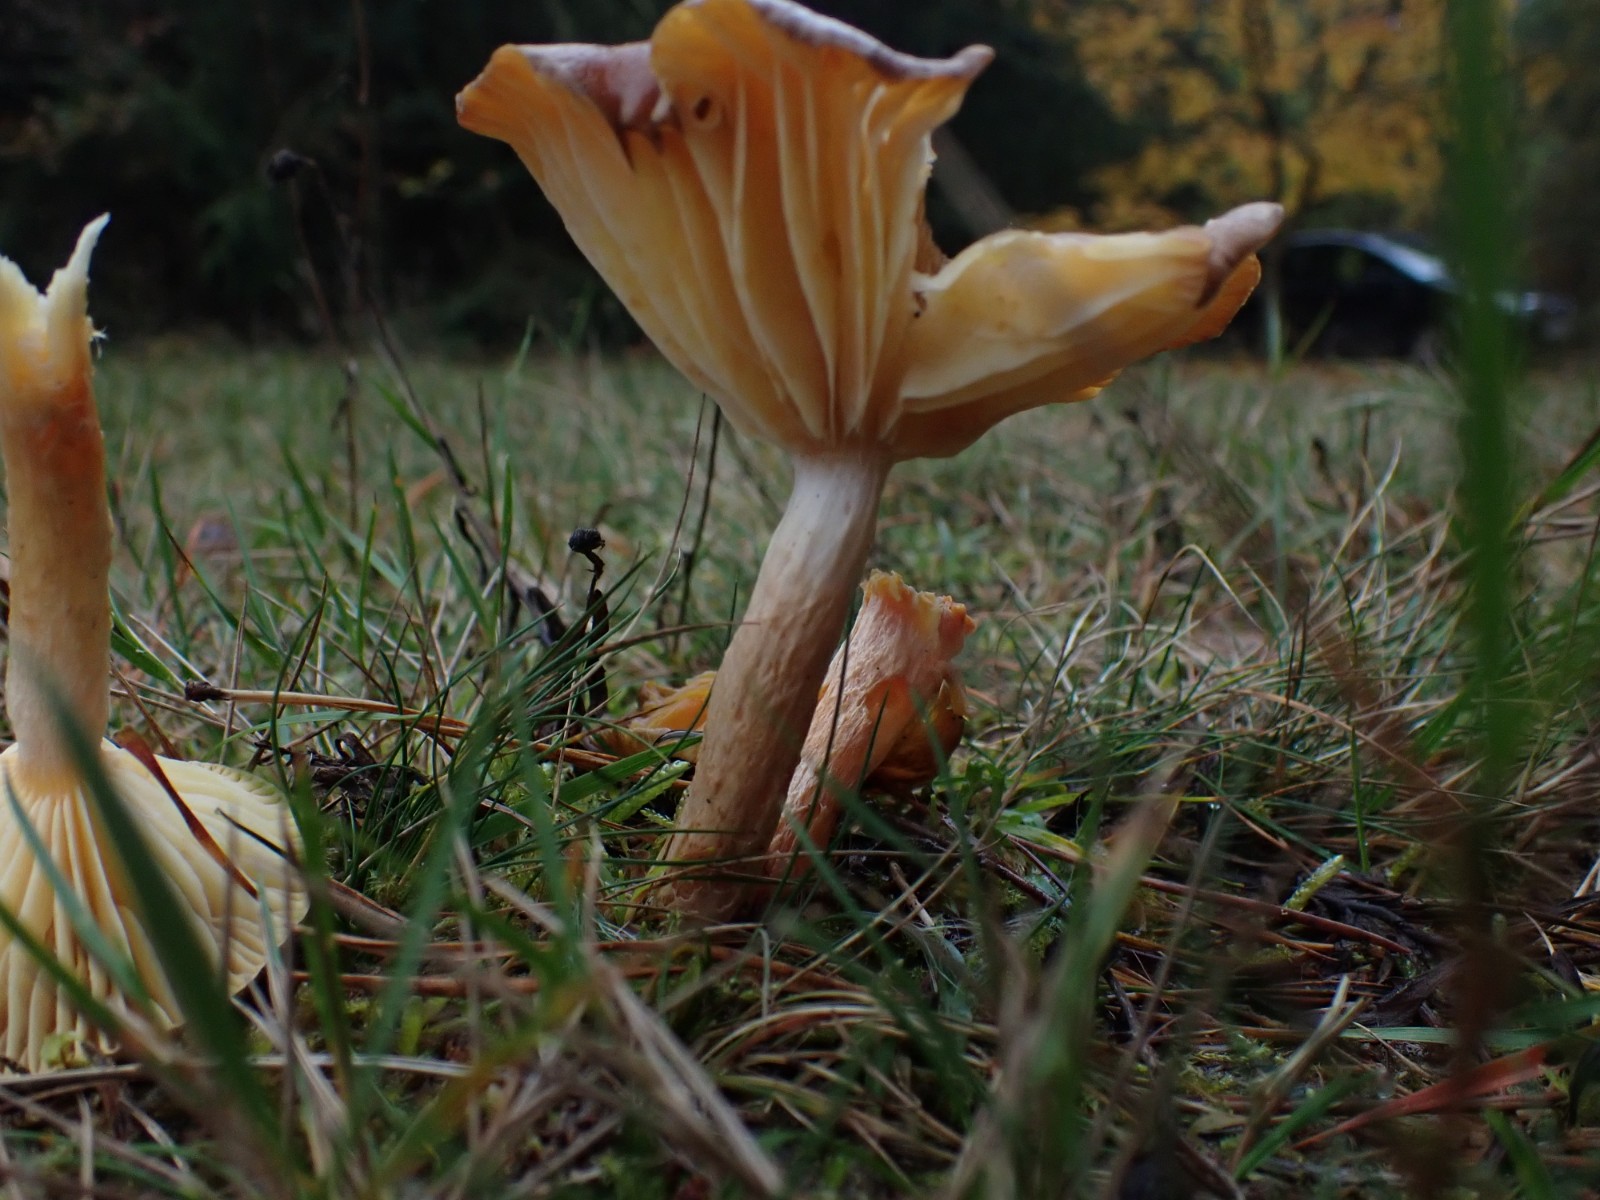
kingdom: Fungi
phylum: Basidiomycota
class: Agaricomycetes
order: Agaricales
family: Hygrophoraceae
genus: Hygrophorus
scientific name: Hygrophorus hypothejus
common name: frost-sneglehat
